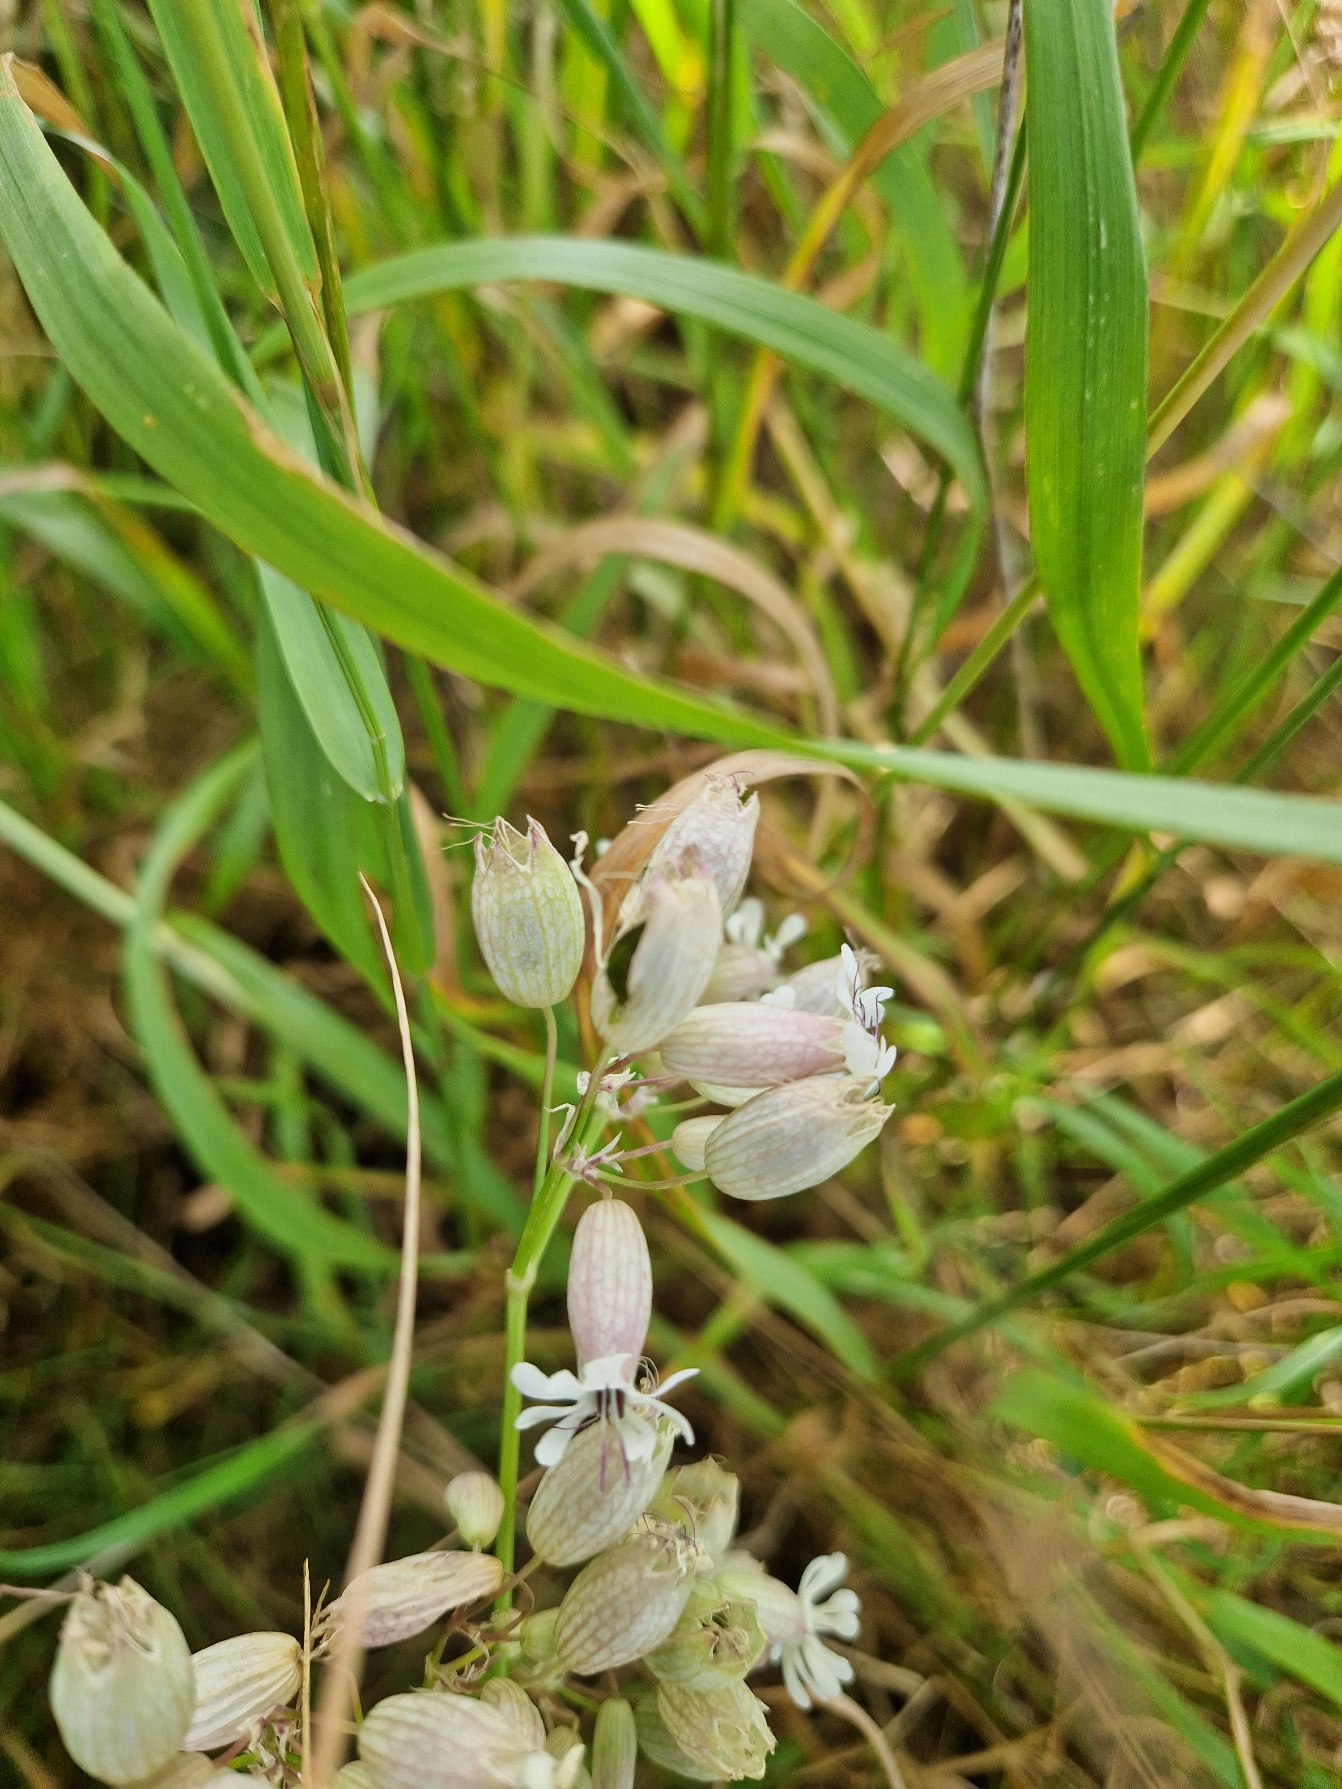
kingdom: Plantae
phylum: Tracheophyta
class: Magnoliopsida
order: Caryophyllales
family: Caryophyllaceae
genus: Silene
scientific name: Silene vulgaris
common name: Blæresmælde
